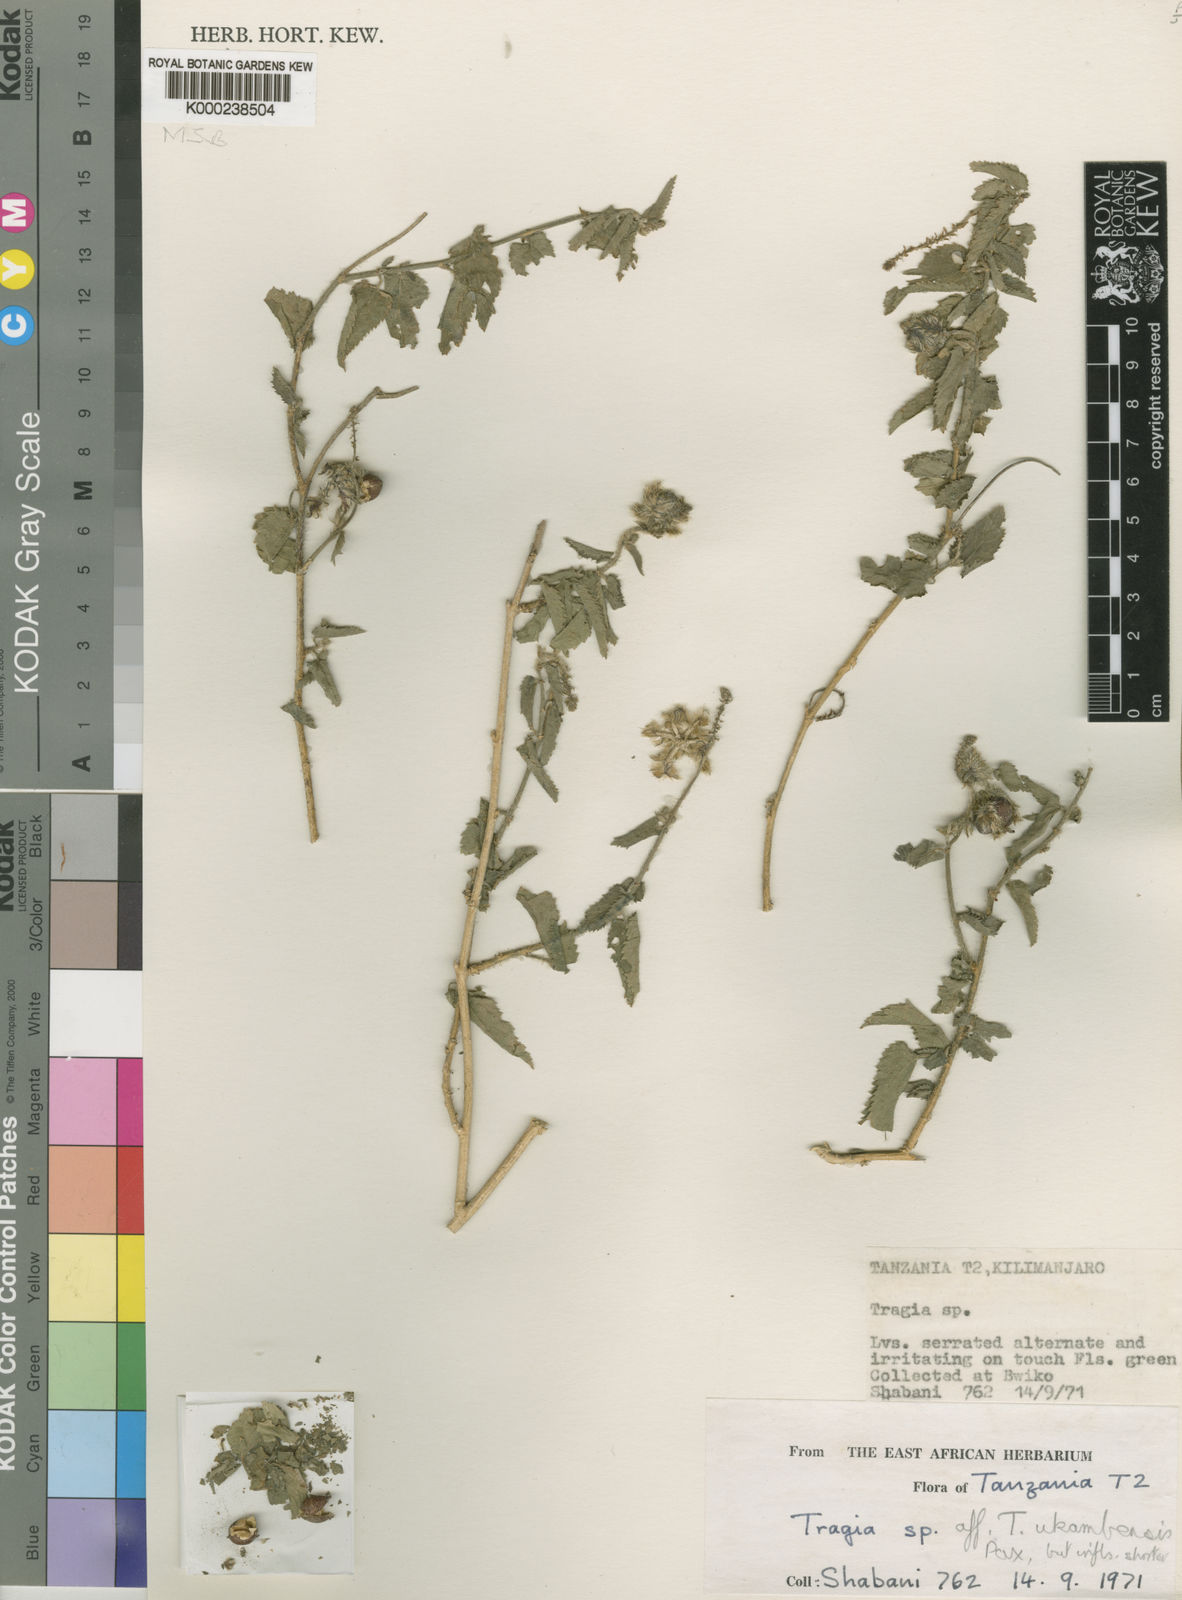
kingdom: Plantae
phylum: Tracheophyta
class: Magnoliopsida
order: Malpighiales
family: Euphorbiaceae
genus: Tragia
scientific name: Tragia ukambensis
